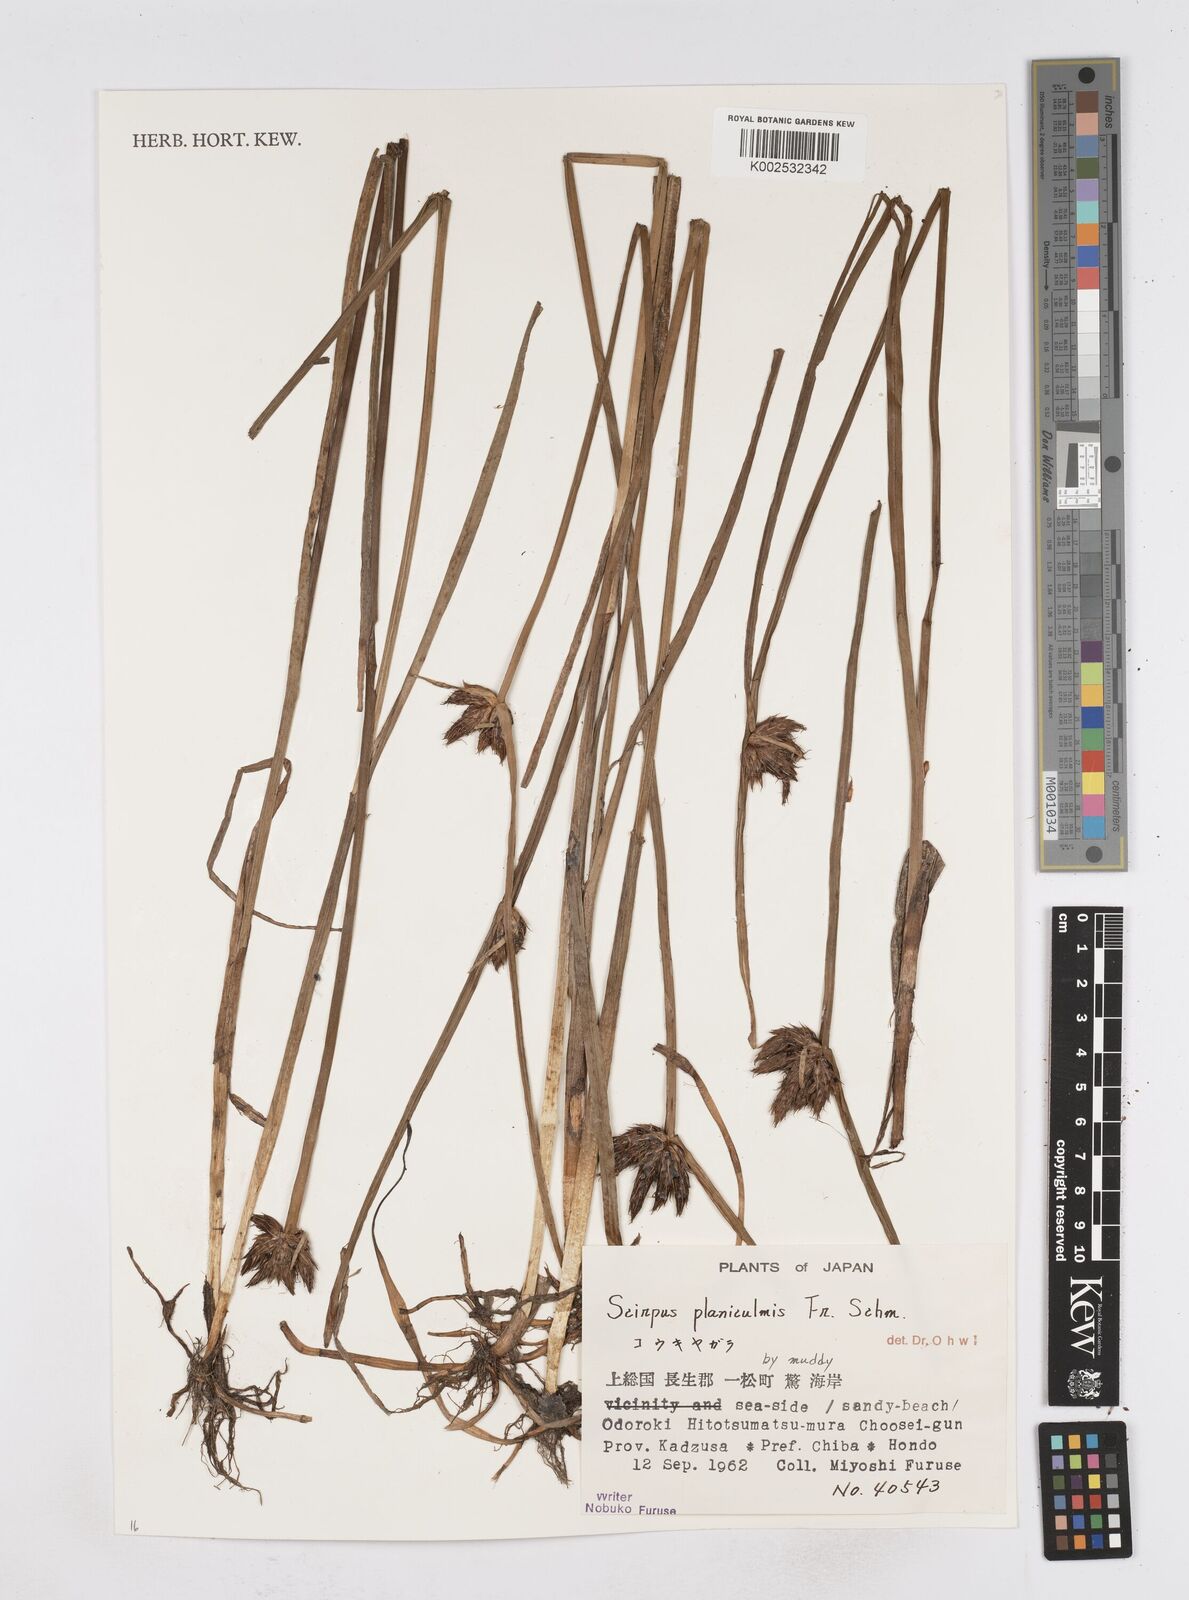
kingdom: Plantae
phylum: Tracheophyta
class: Liliopsida
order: Poales
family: Cyperaceae
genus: Bolboschoenus
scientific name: Bolboschoenus planiculmis
